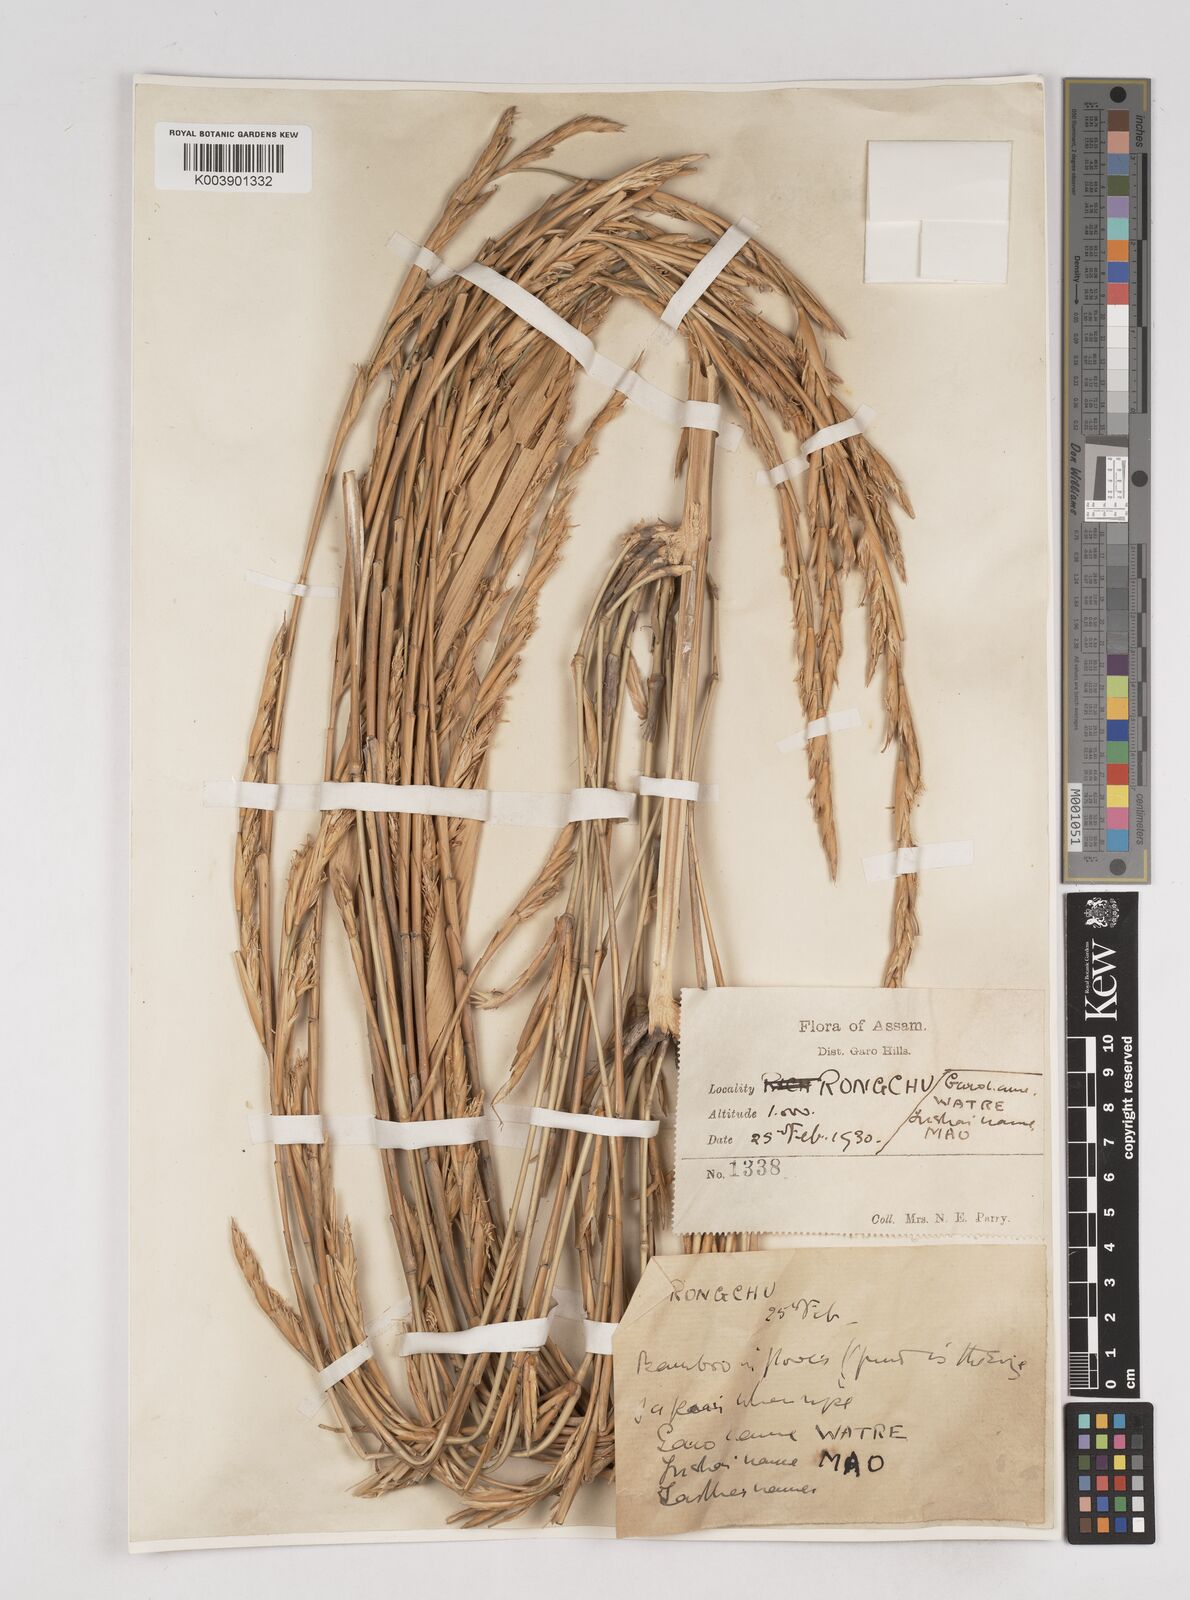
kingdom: Plantae
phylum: Tracheophyta
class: Liliopsida
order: Poales
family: Poaceae
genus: Melocanna
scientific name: Melocanna
